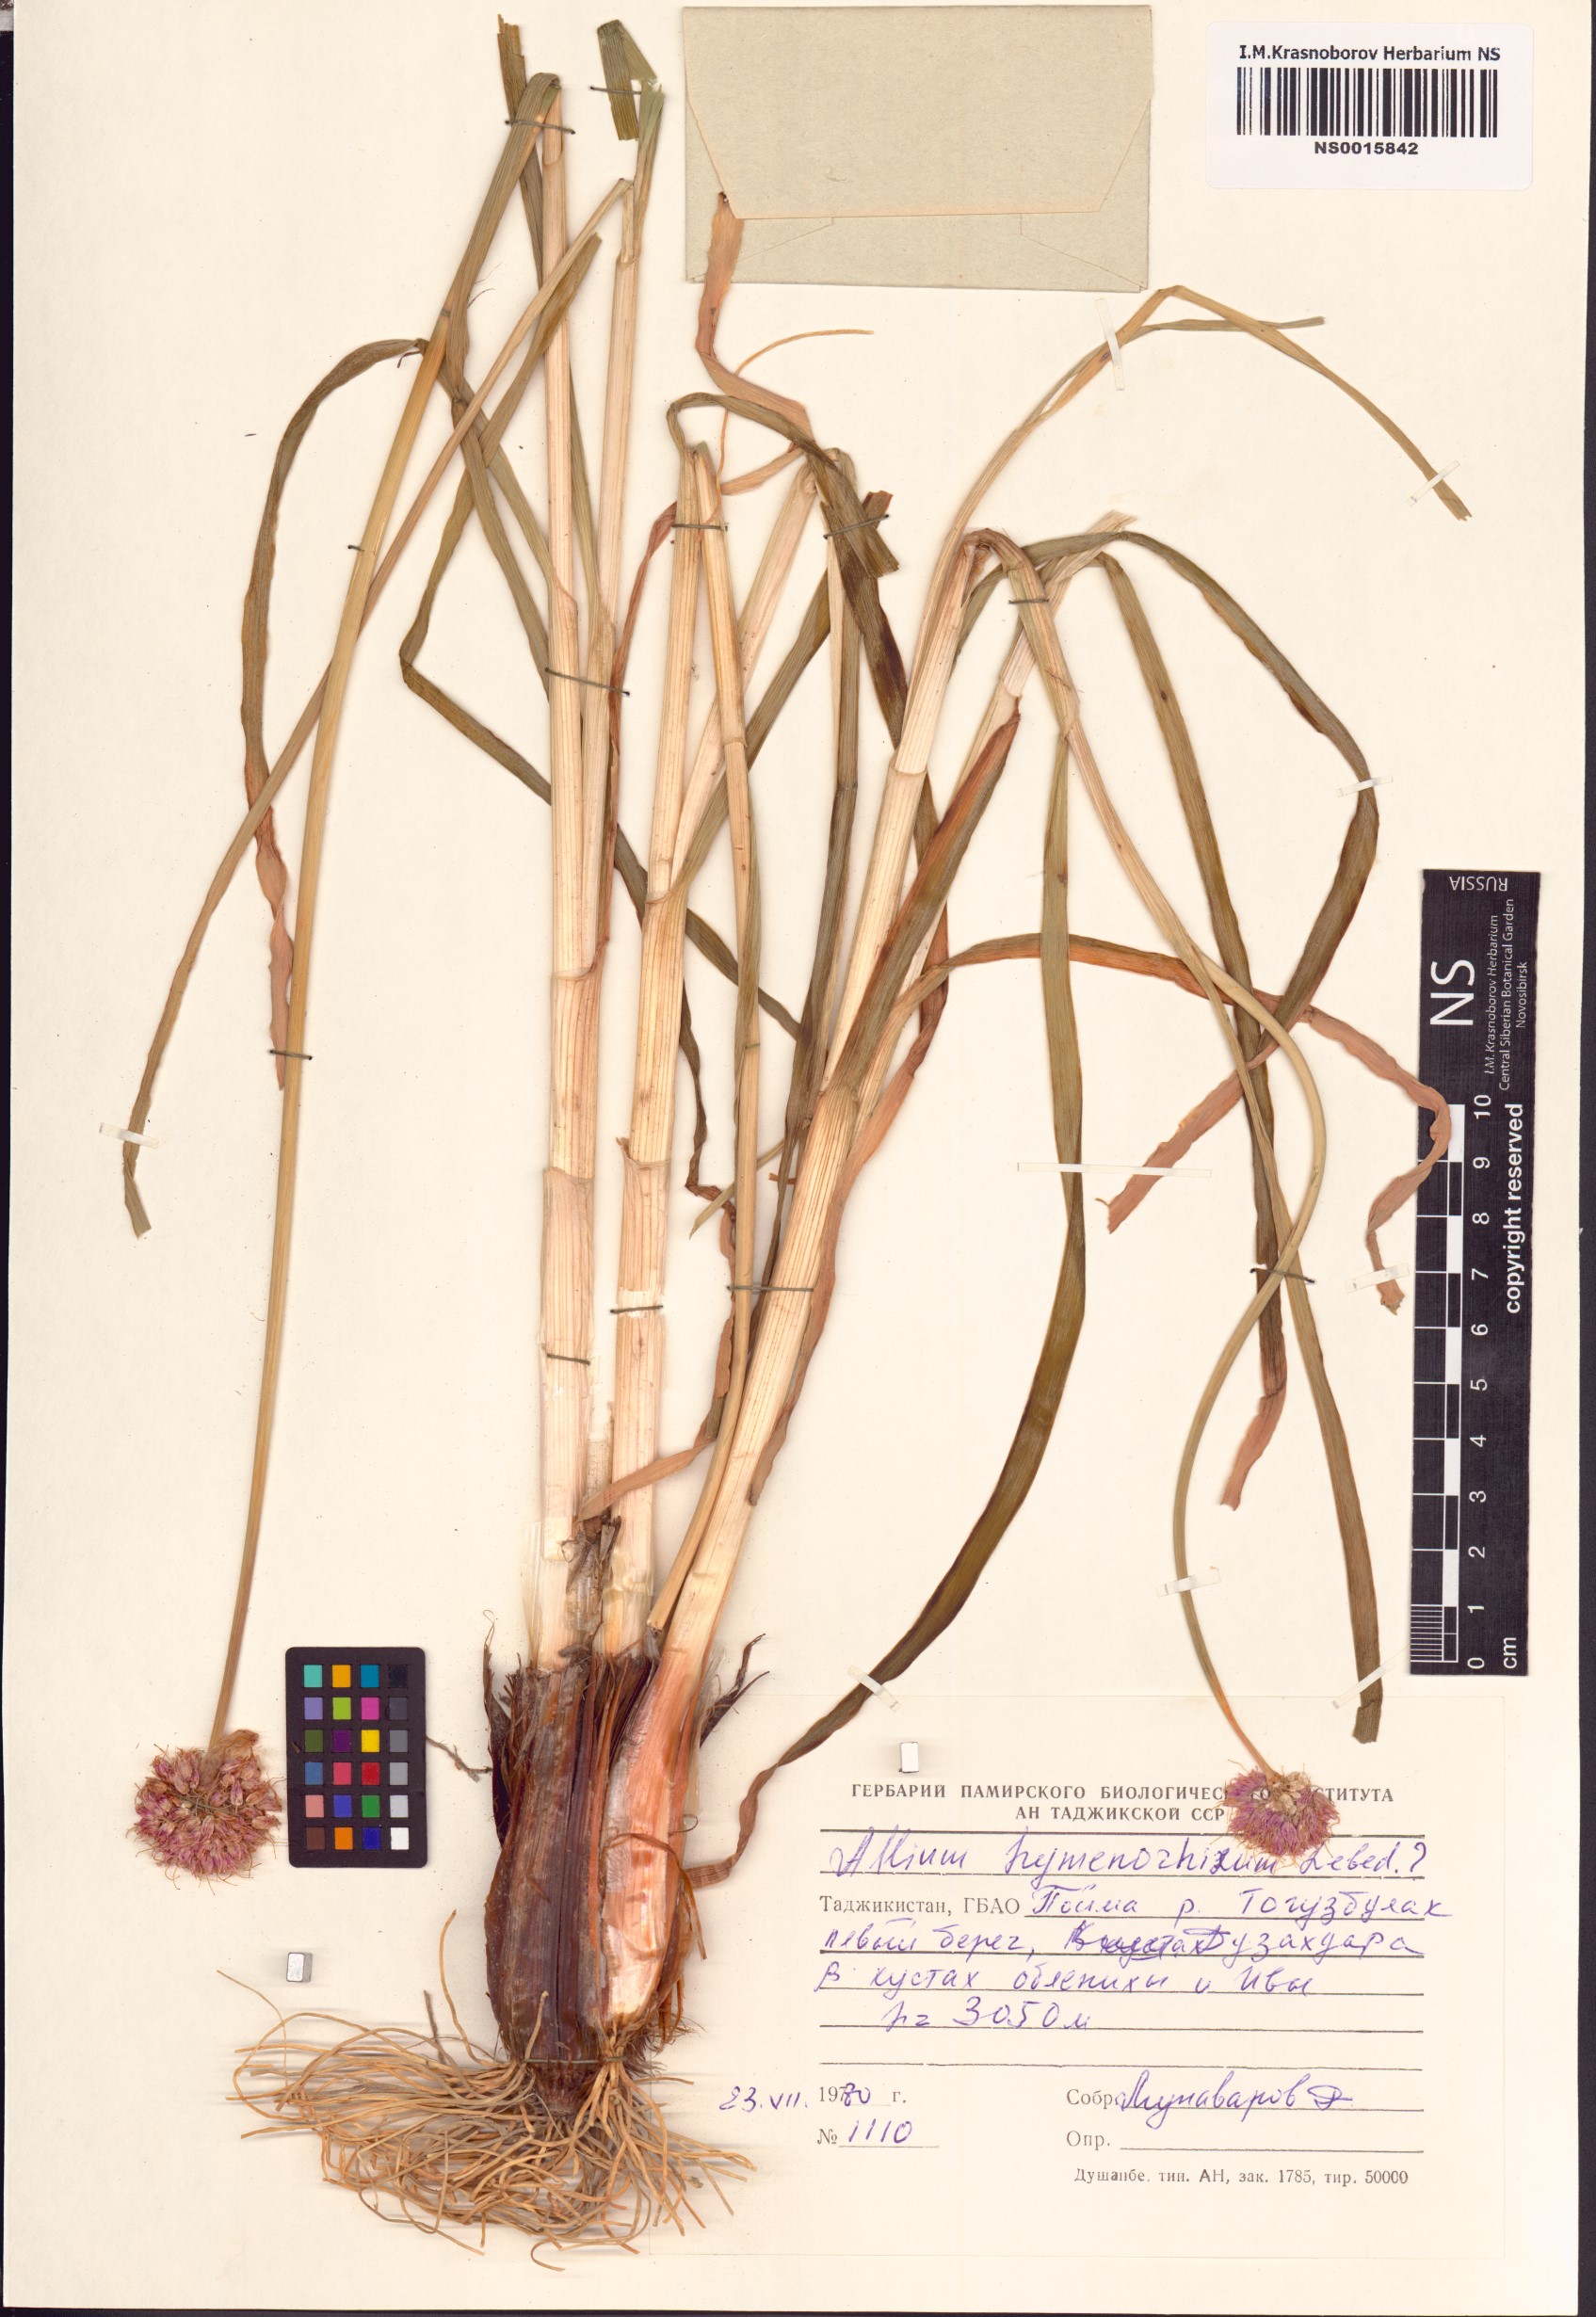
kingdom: Plantae
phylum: Tracheophyta
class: Liliopsida
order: Asparagales
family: Amaryllidaceae
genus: Allium
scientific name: Allium hymenorhizum
